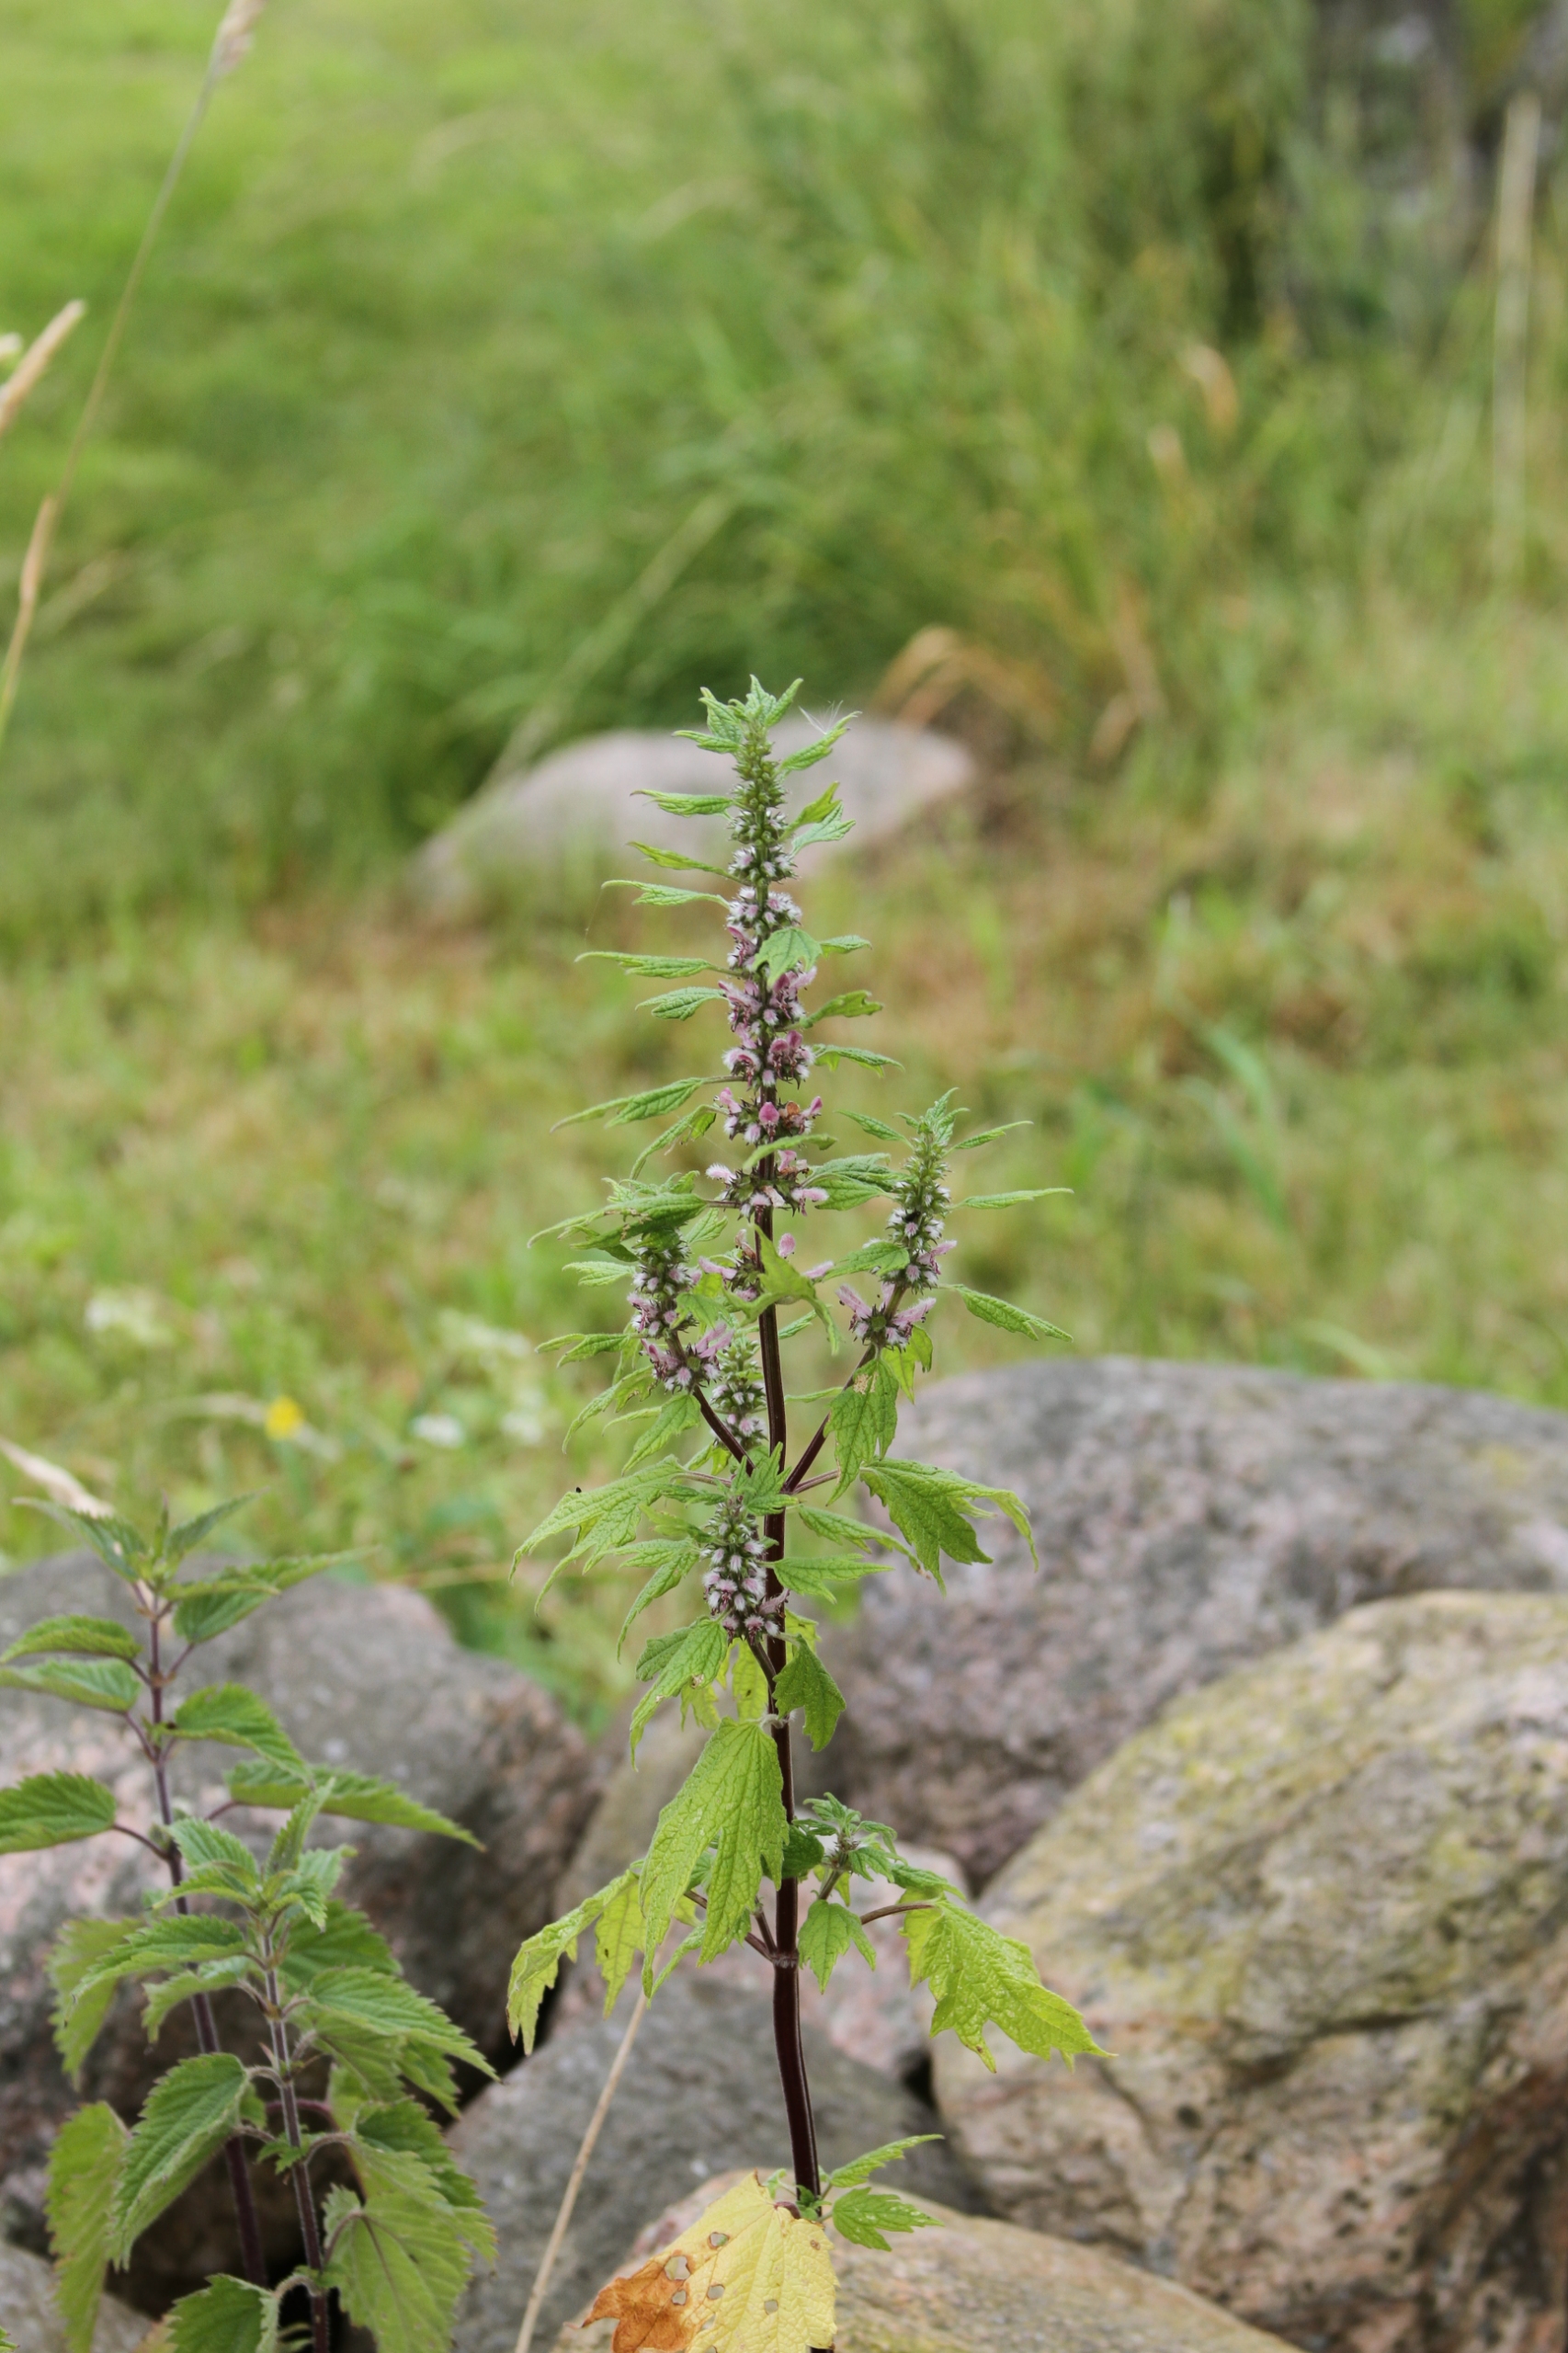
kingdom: Plantae
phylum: Tracheophyta
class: Magnoliopsida
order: Lamiales
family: Lamiaceae
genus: Leonurus
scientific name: Leonurus cardiaca
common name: Hjertespand
